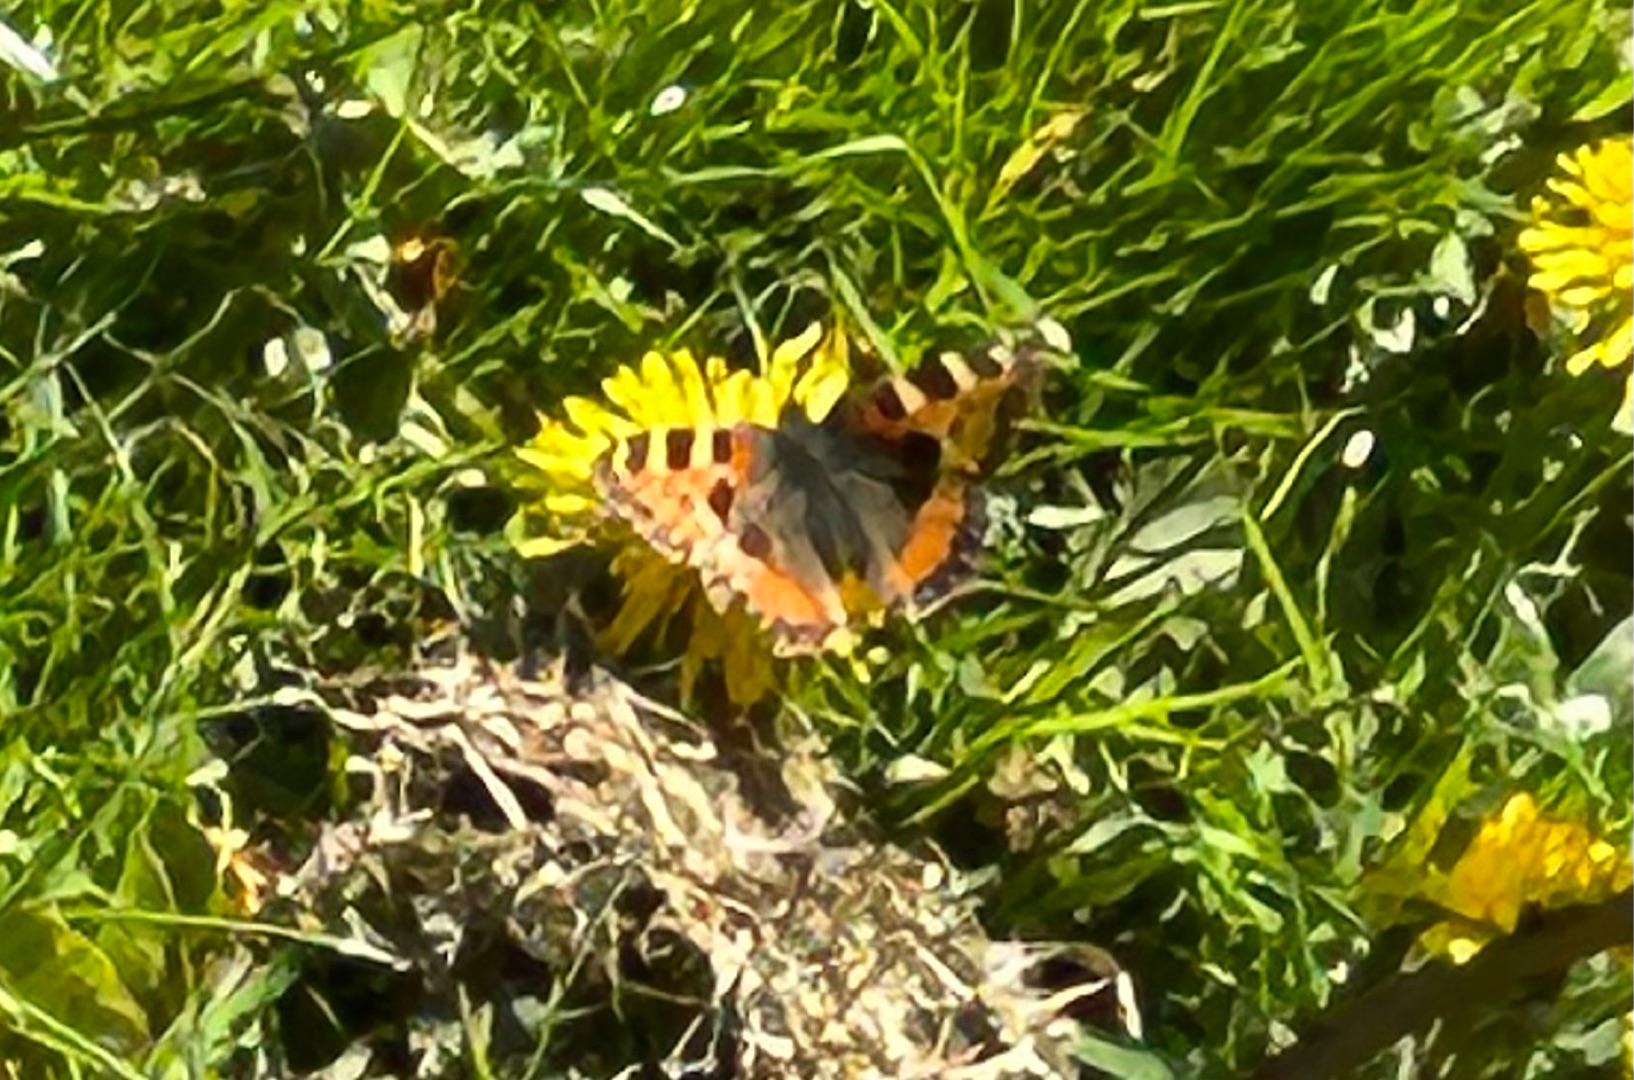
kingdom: Animalia
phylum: Arthropoda
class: Insecta
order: Lepidoptera
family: Nymphalidae
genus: Aglais
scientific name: Aglais urticae
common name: Nældens takvinge
